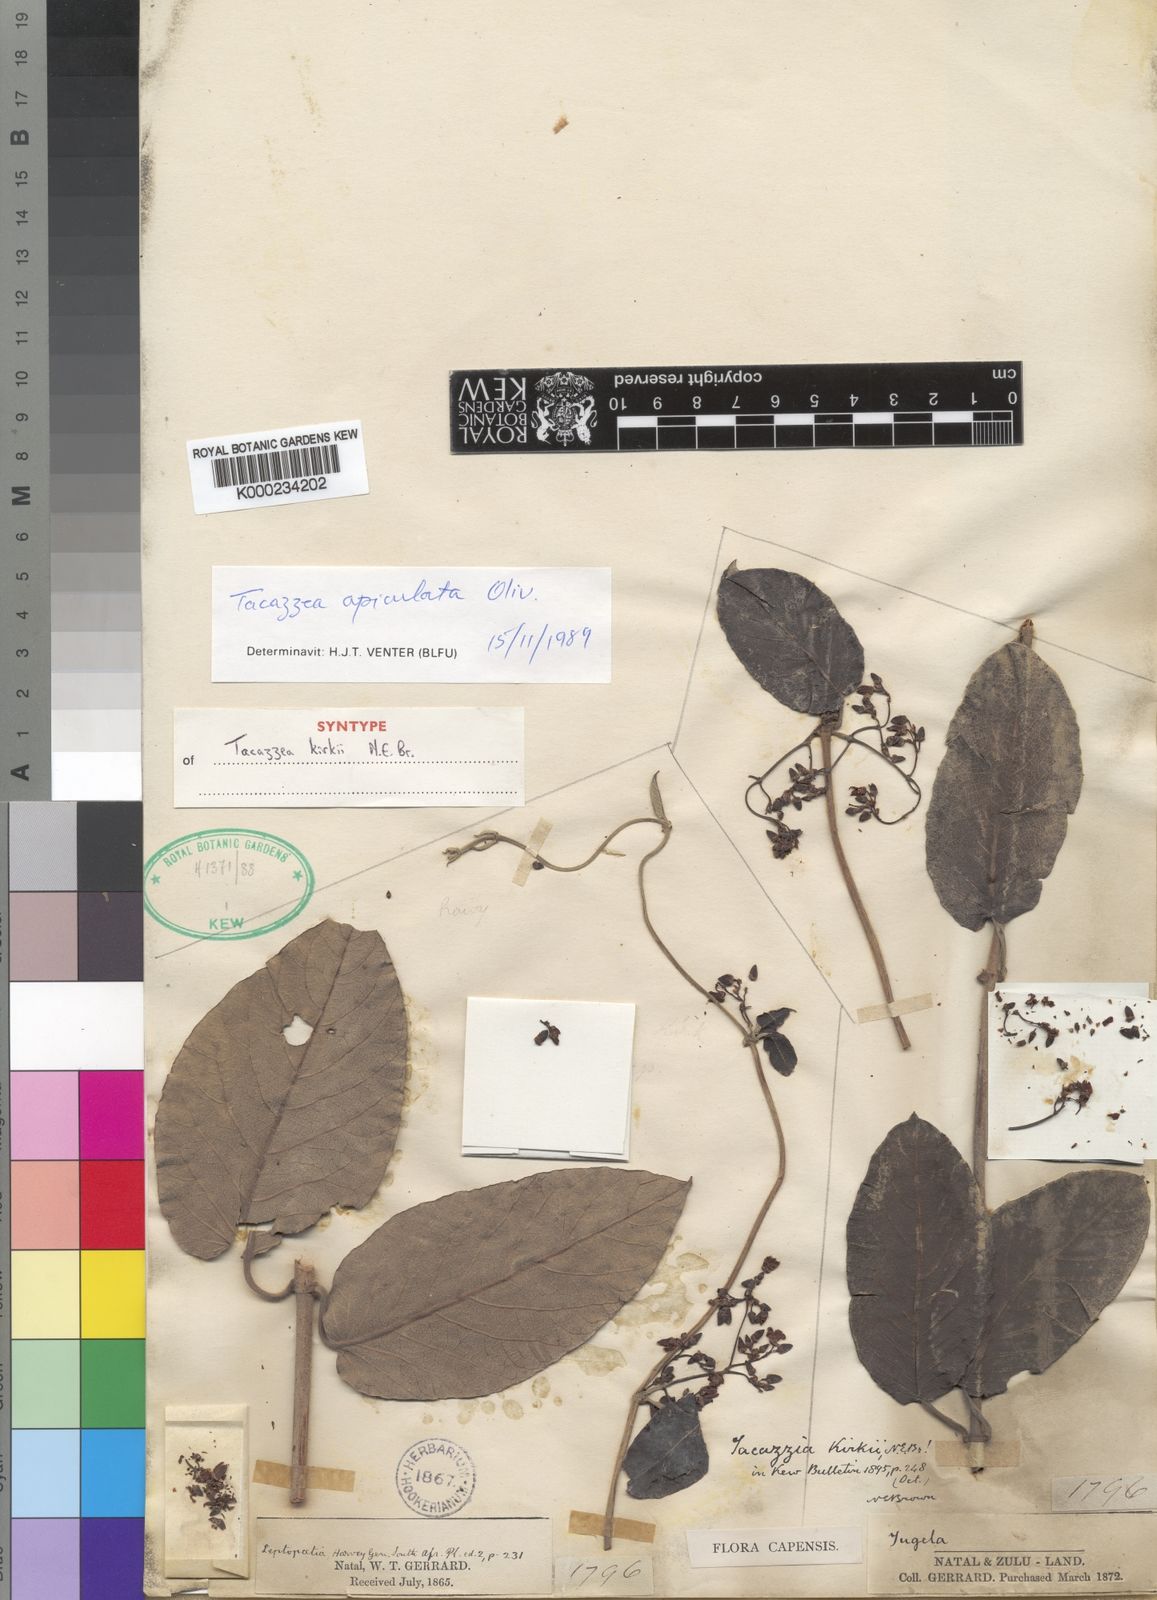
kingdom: Plantae
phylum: Tracheophyta
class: Magnoliopsida
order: Gentianales
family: Apocynaceae
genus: Tacazzea
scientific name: Tacazzea apiculata
